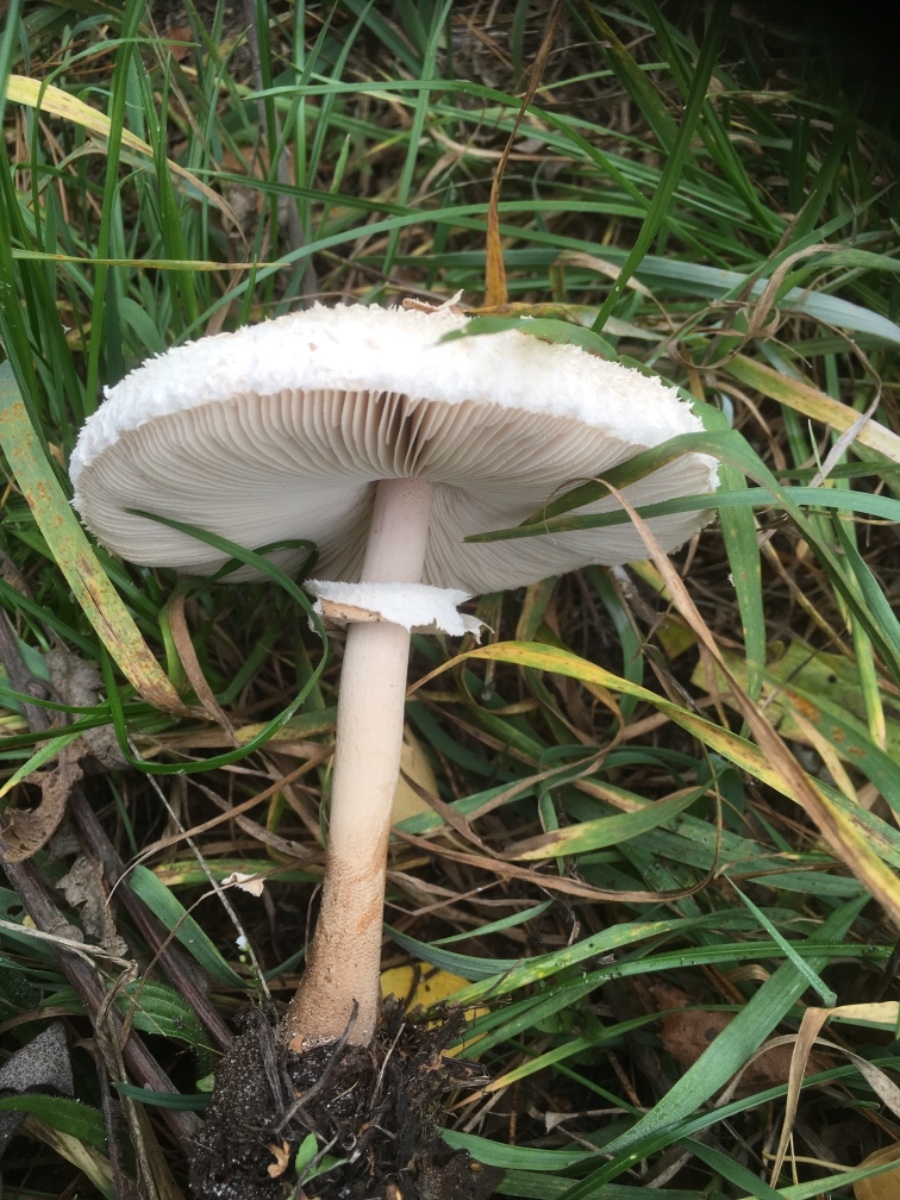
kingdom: Fungi
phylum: Basidiomycota
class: Agaricomycetes
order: Agaricales
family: Agaricaceae
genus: Macrolepiota
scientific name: Macrolepiota mastoidea
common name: puklet kæmpeparasolhat
